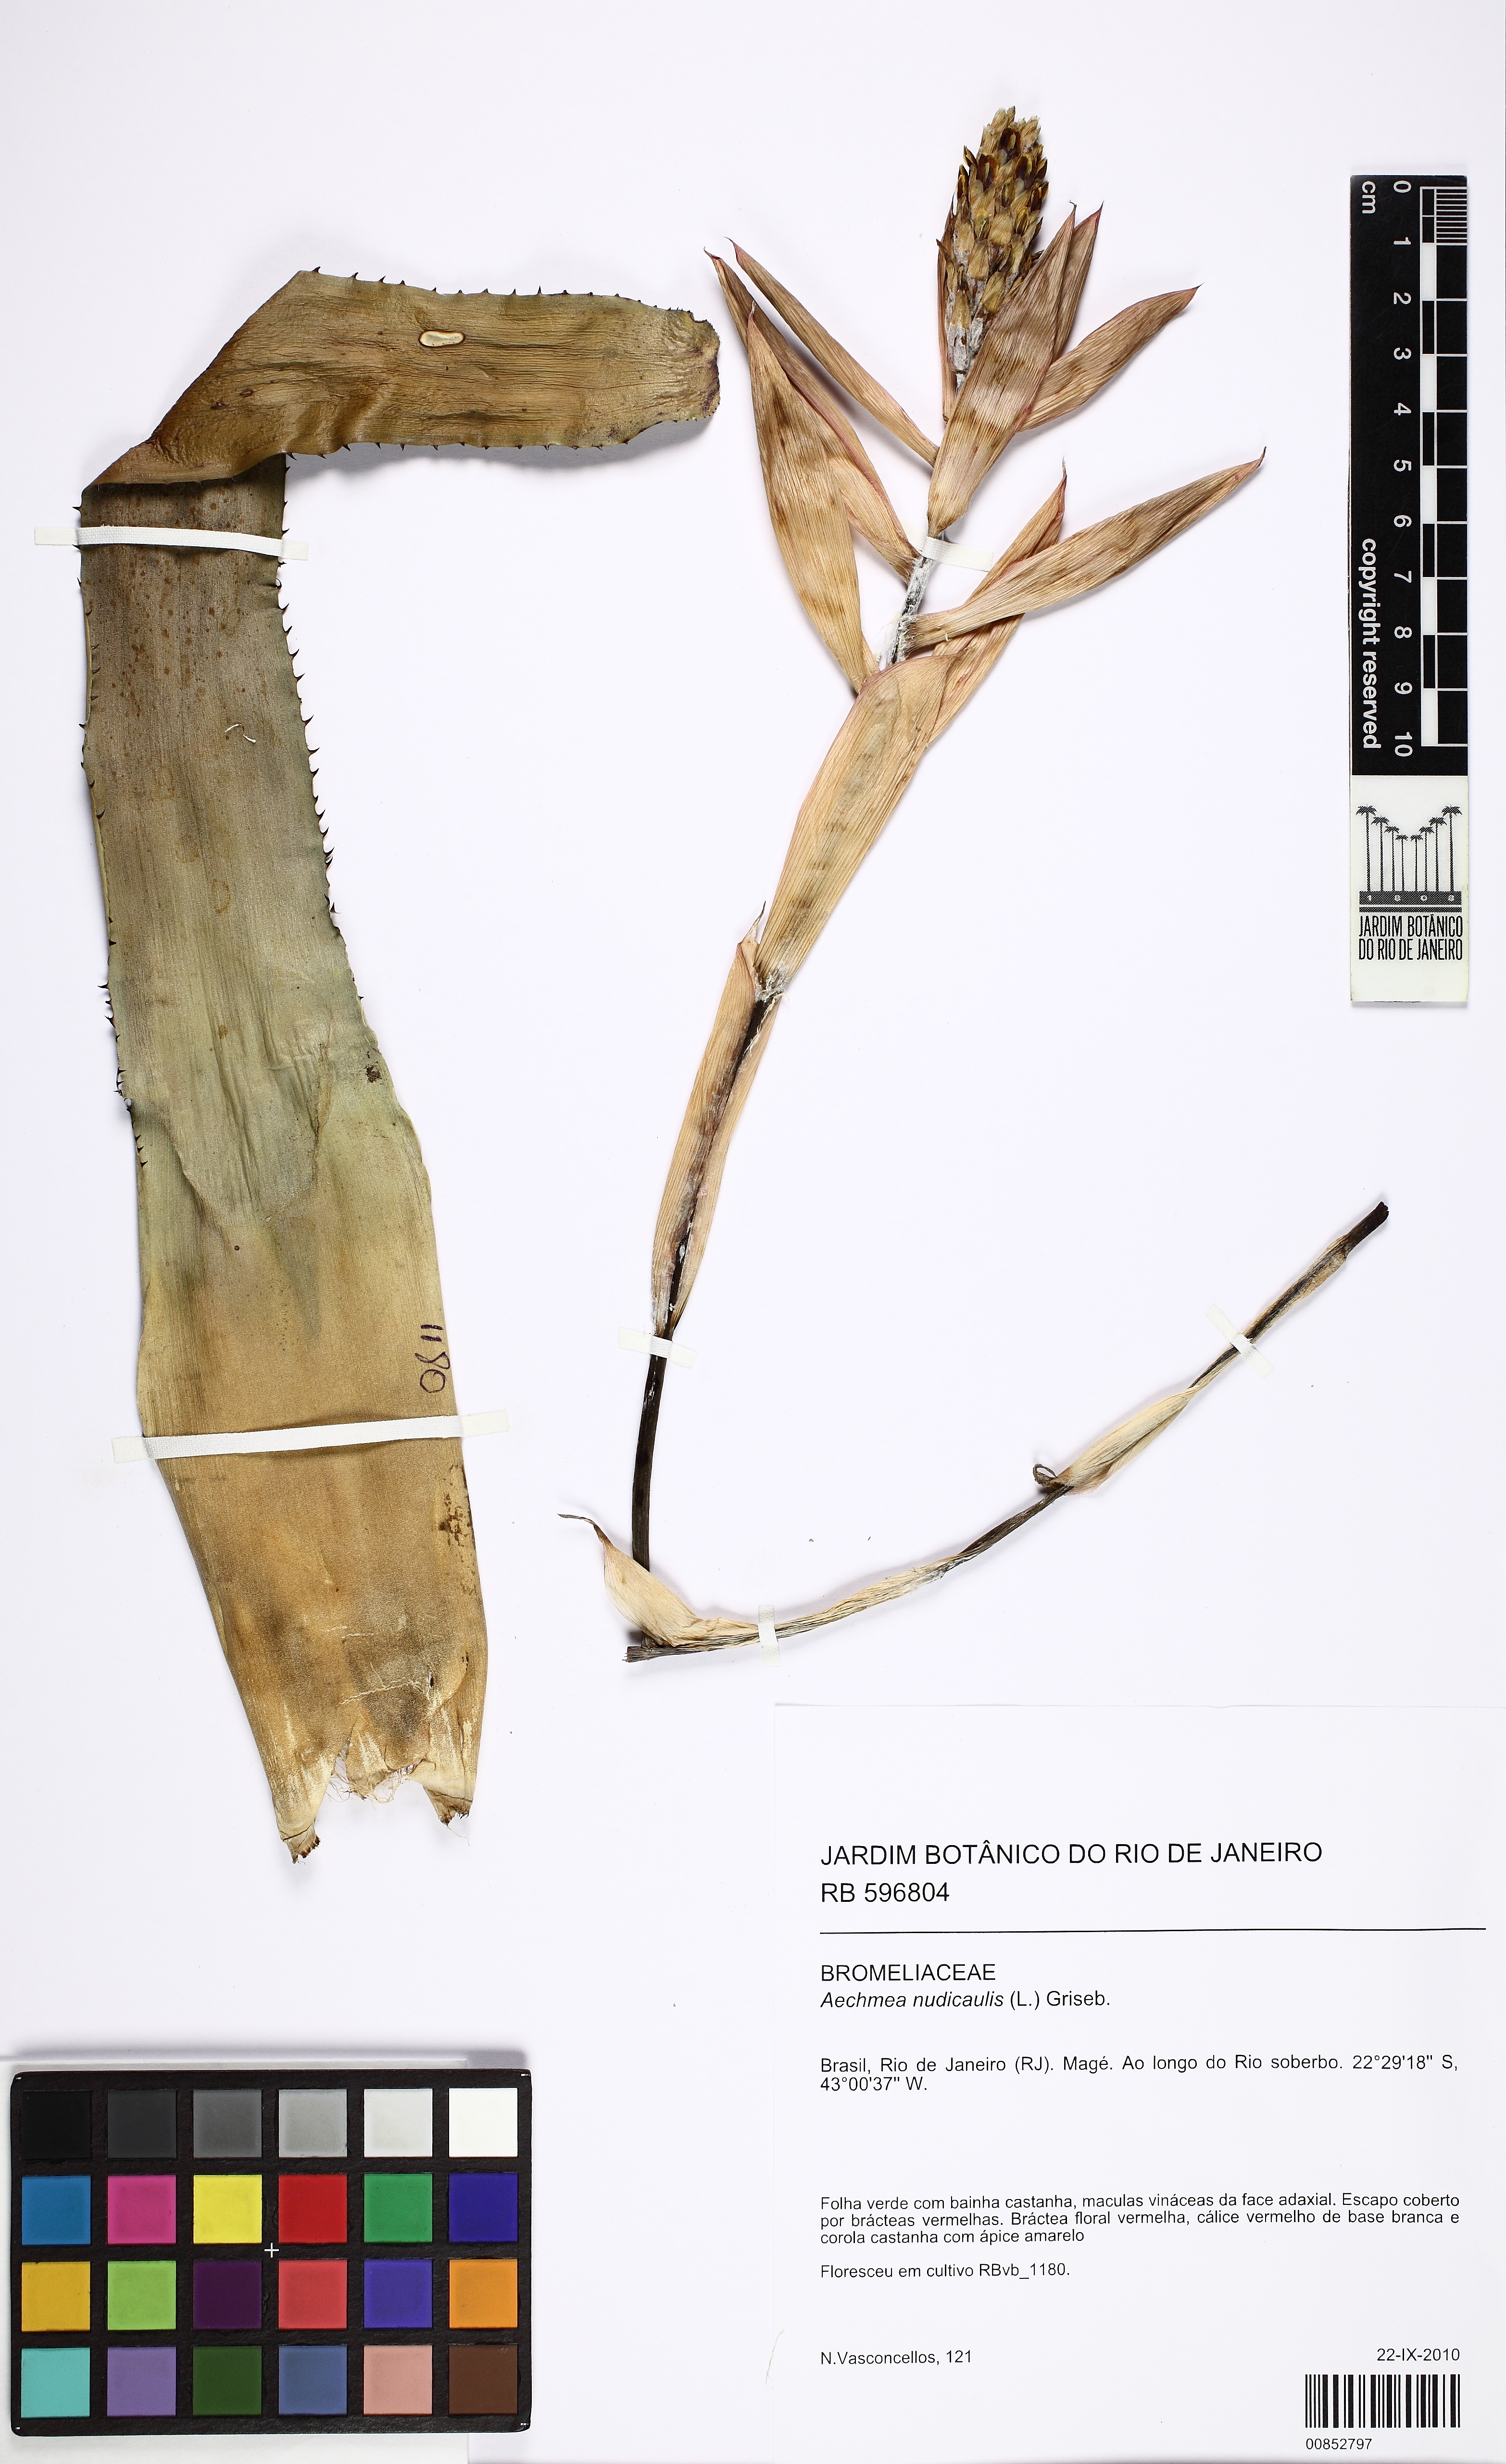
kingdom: Plantae
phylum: Tracheophyta
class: Liliopsida
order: Poales
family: Bromeliaceae
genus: Aechmea
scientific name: Aechmea nudicaulis
